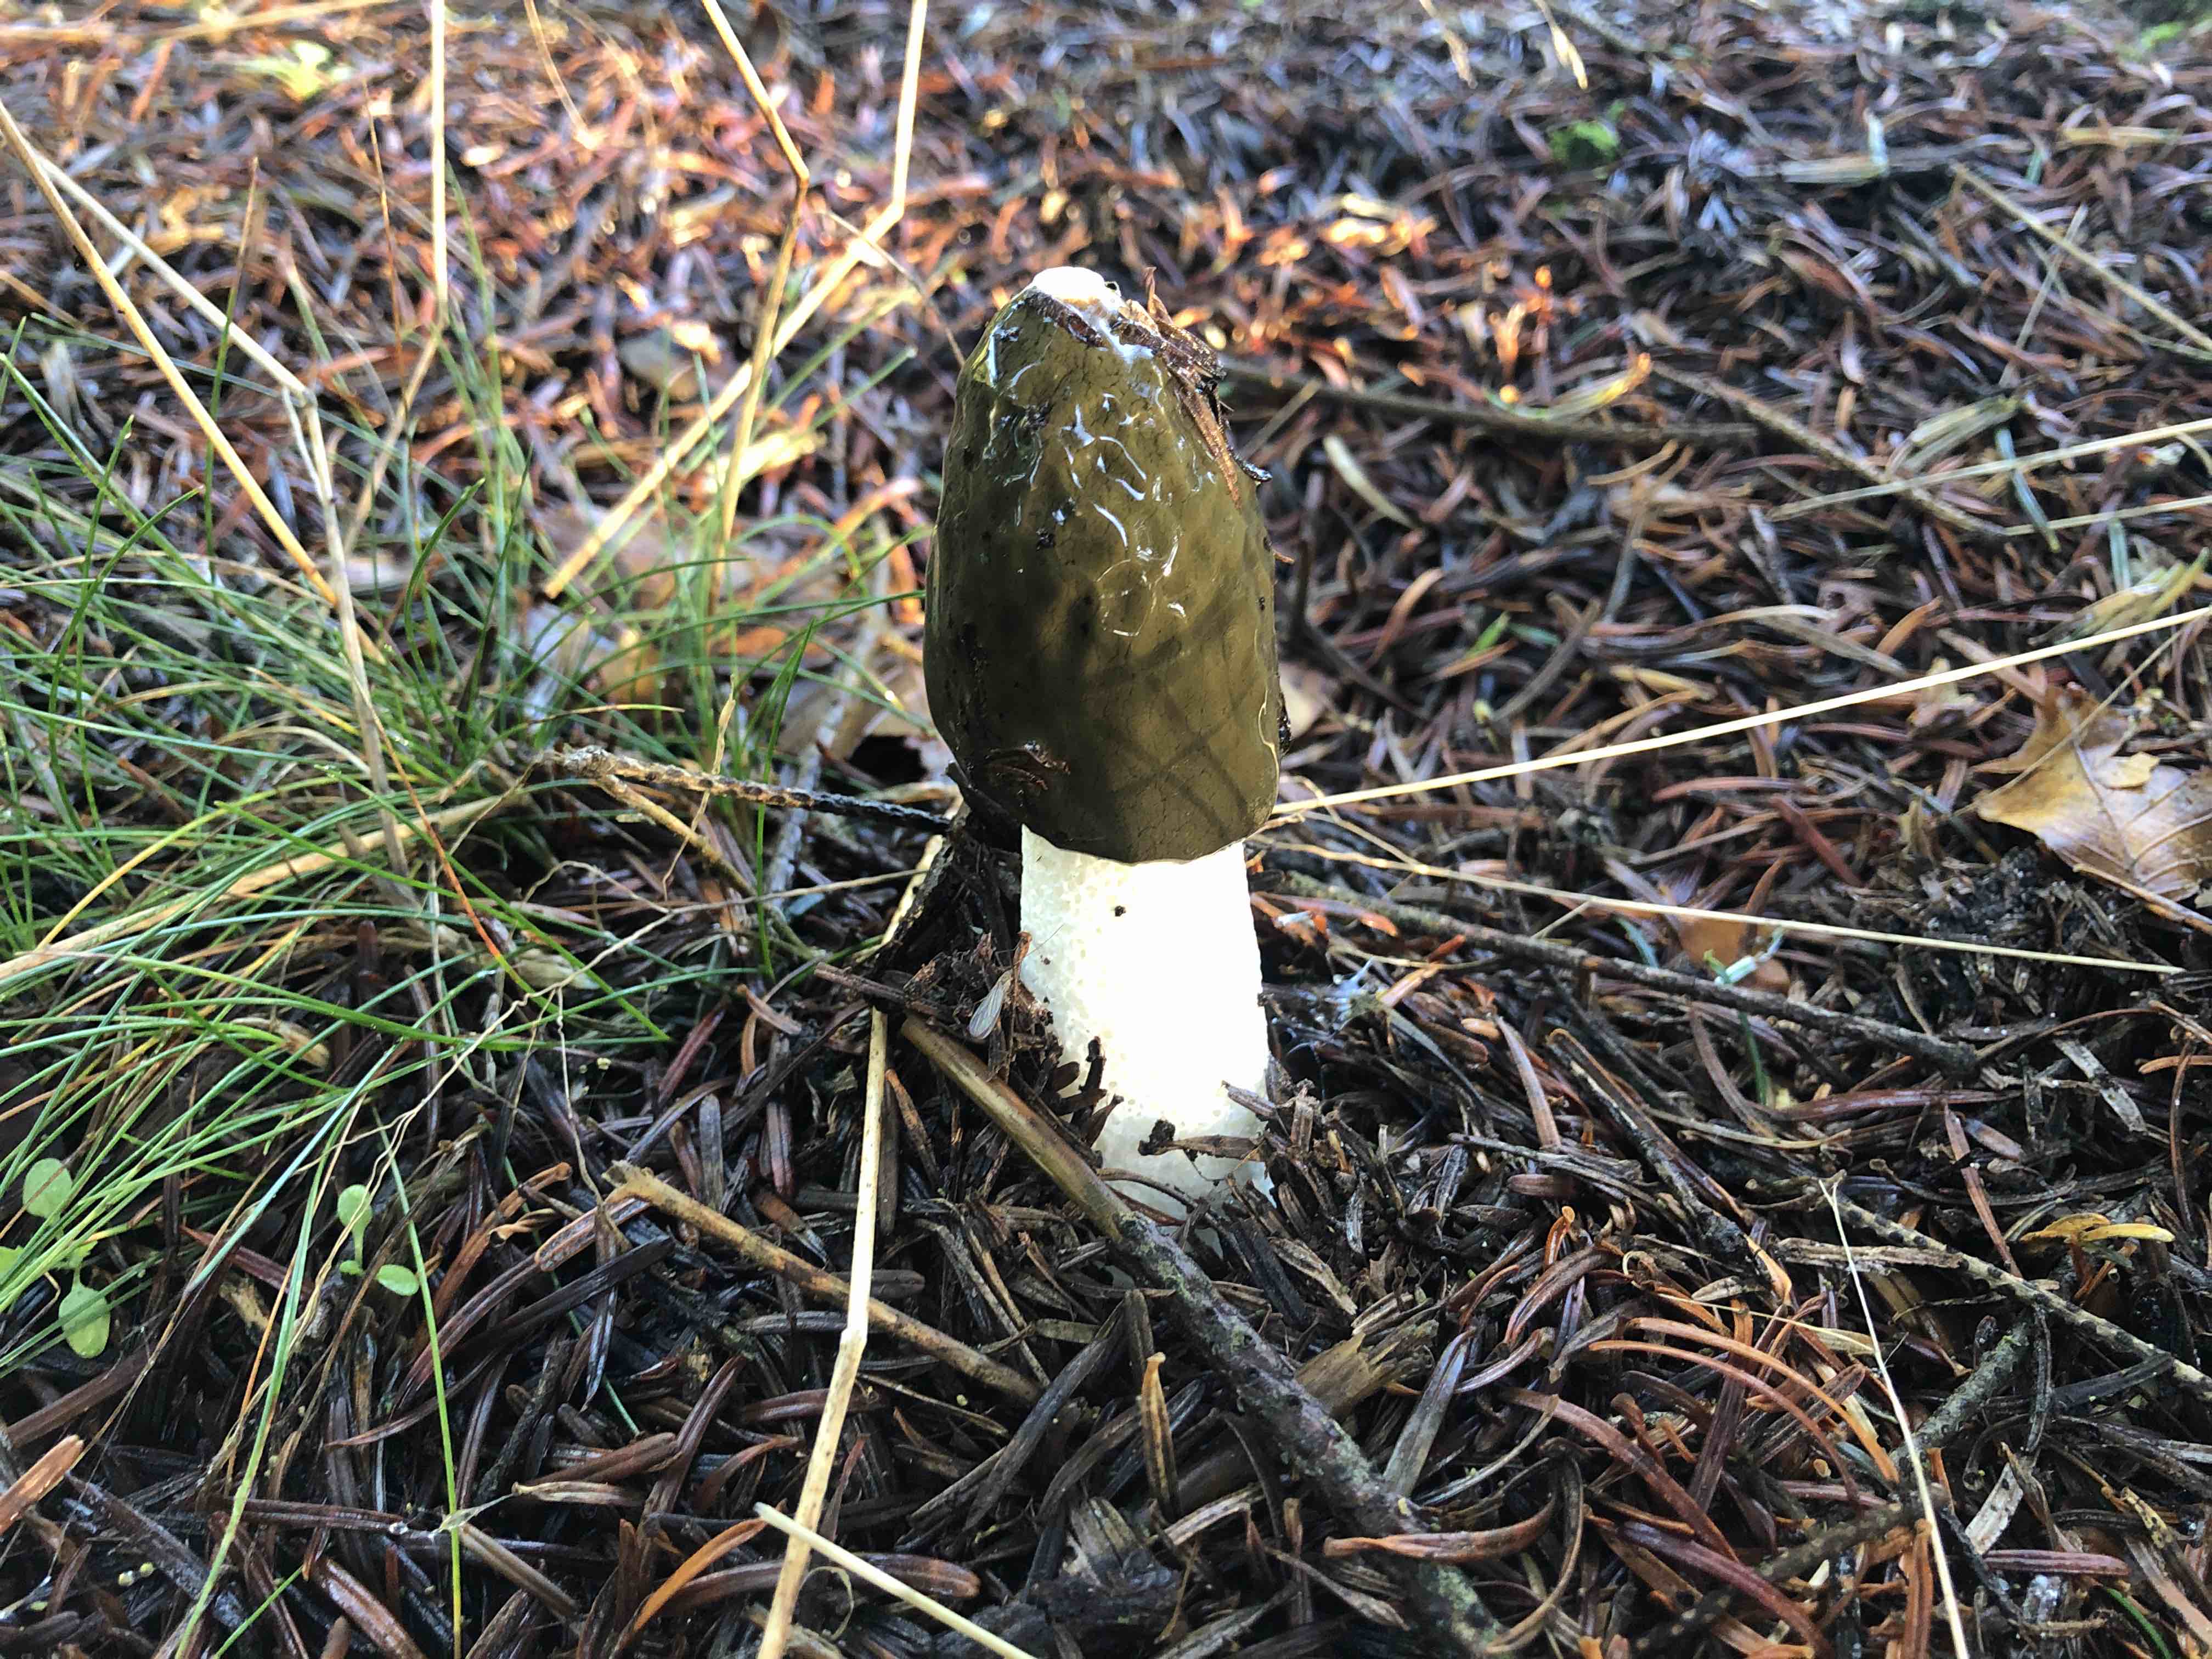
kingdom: Fungi
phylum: Basidiomycota
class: Agaricomycetes
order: Phallales
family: Phallaceae
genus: Phallus
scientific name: Phallus impudicus
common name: almindelig stinksvamp
